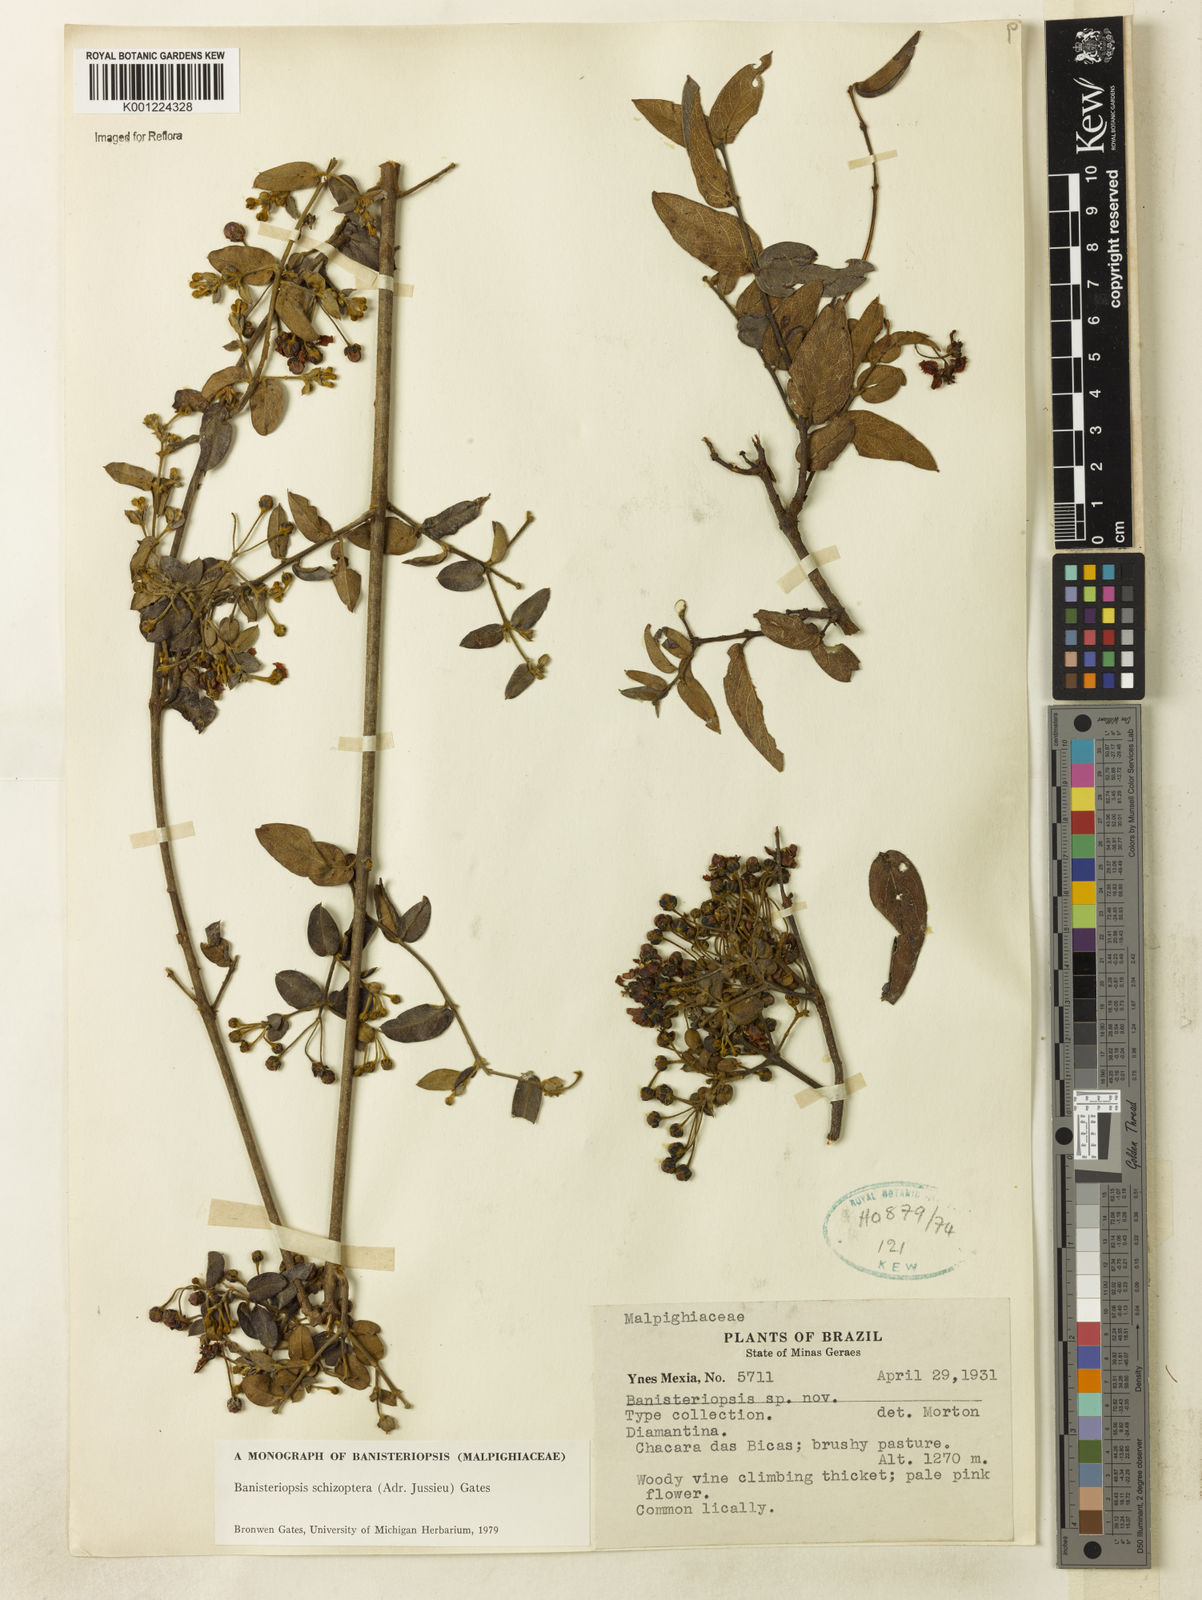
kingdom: Plantae
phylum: Tracheophyta
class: Magnoliopsida
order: Malpighiales
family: Malpighiaceae
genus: Banisteriopsis
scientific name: Banisteriopsis schizoptera
